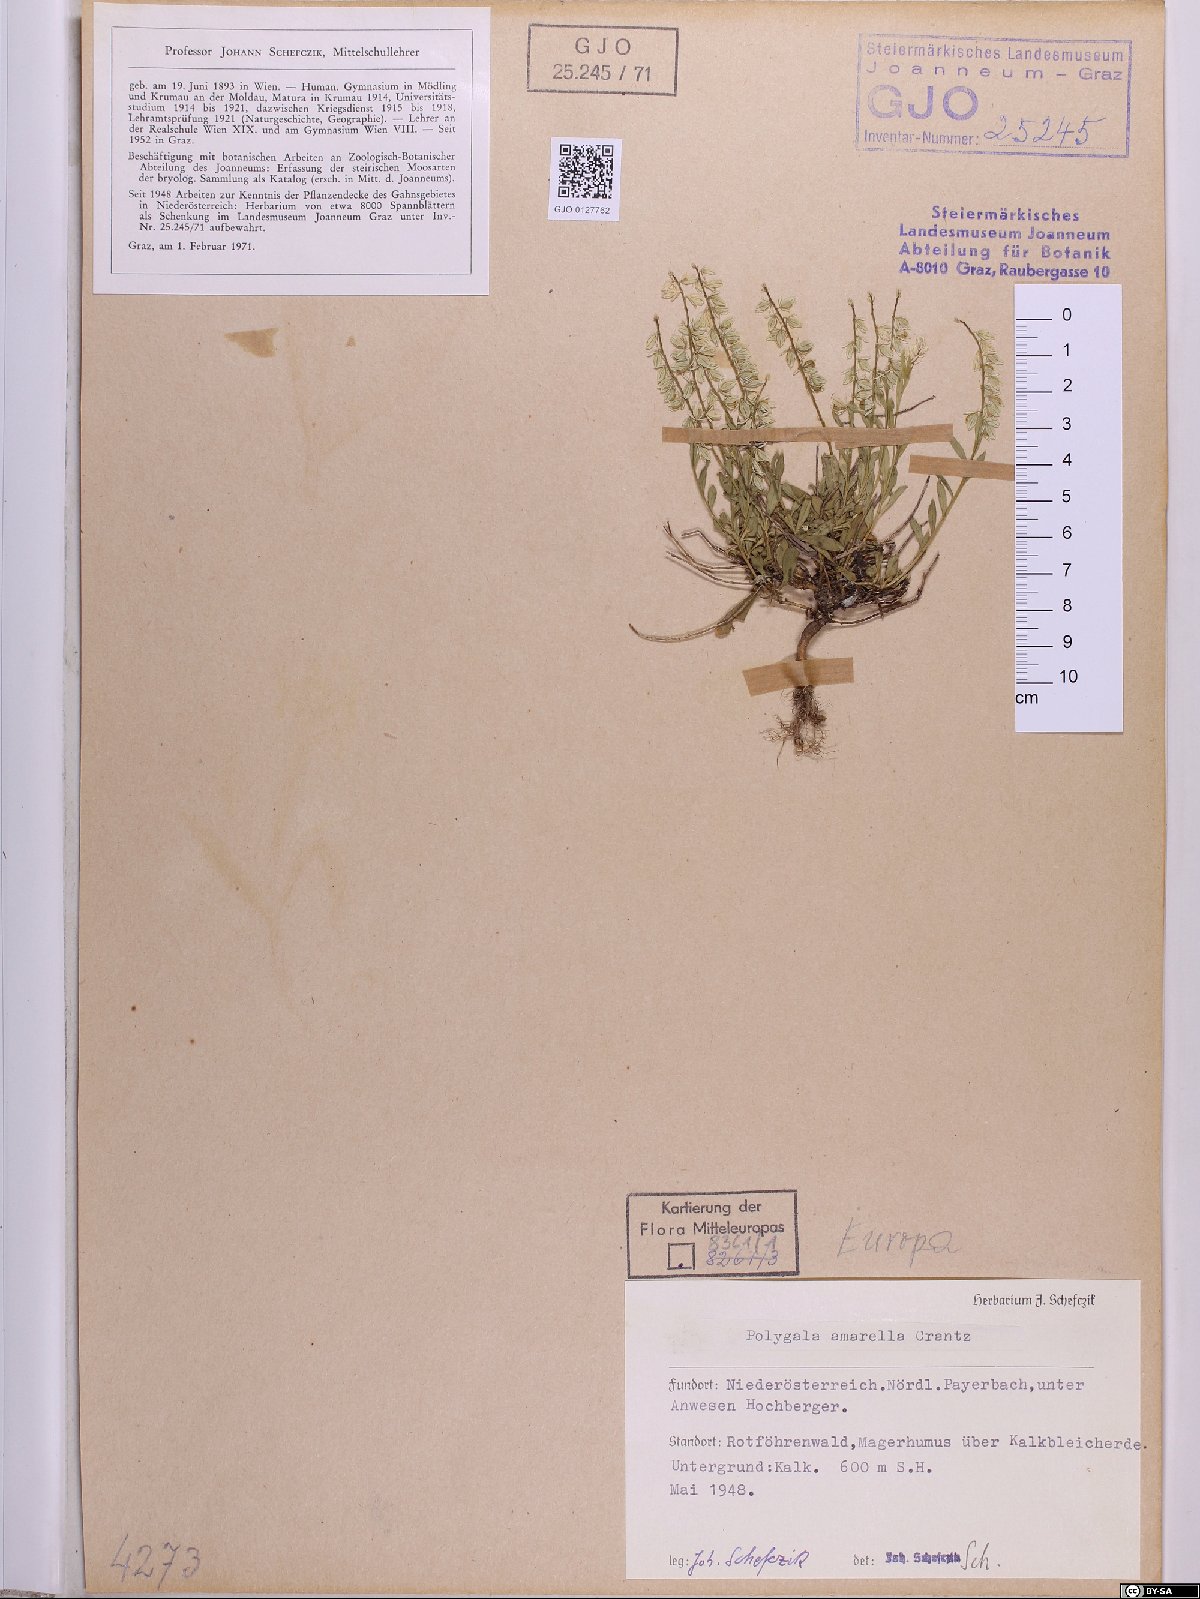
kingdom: Plantae
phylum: Tracheophyta
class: Magnoliopsida
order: Fabales
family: Polygalaceae
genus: Polygala
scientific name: Polygala amarella
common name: Dwarf milkwort
